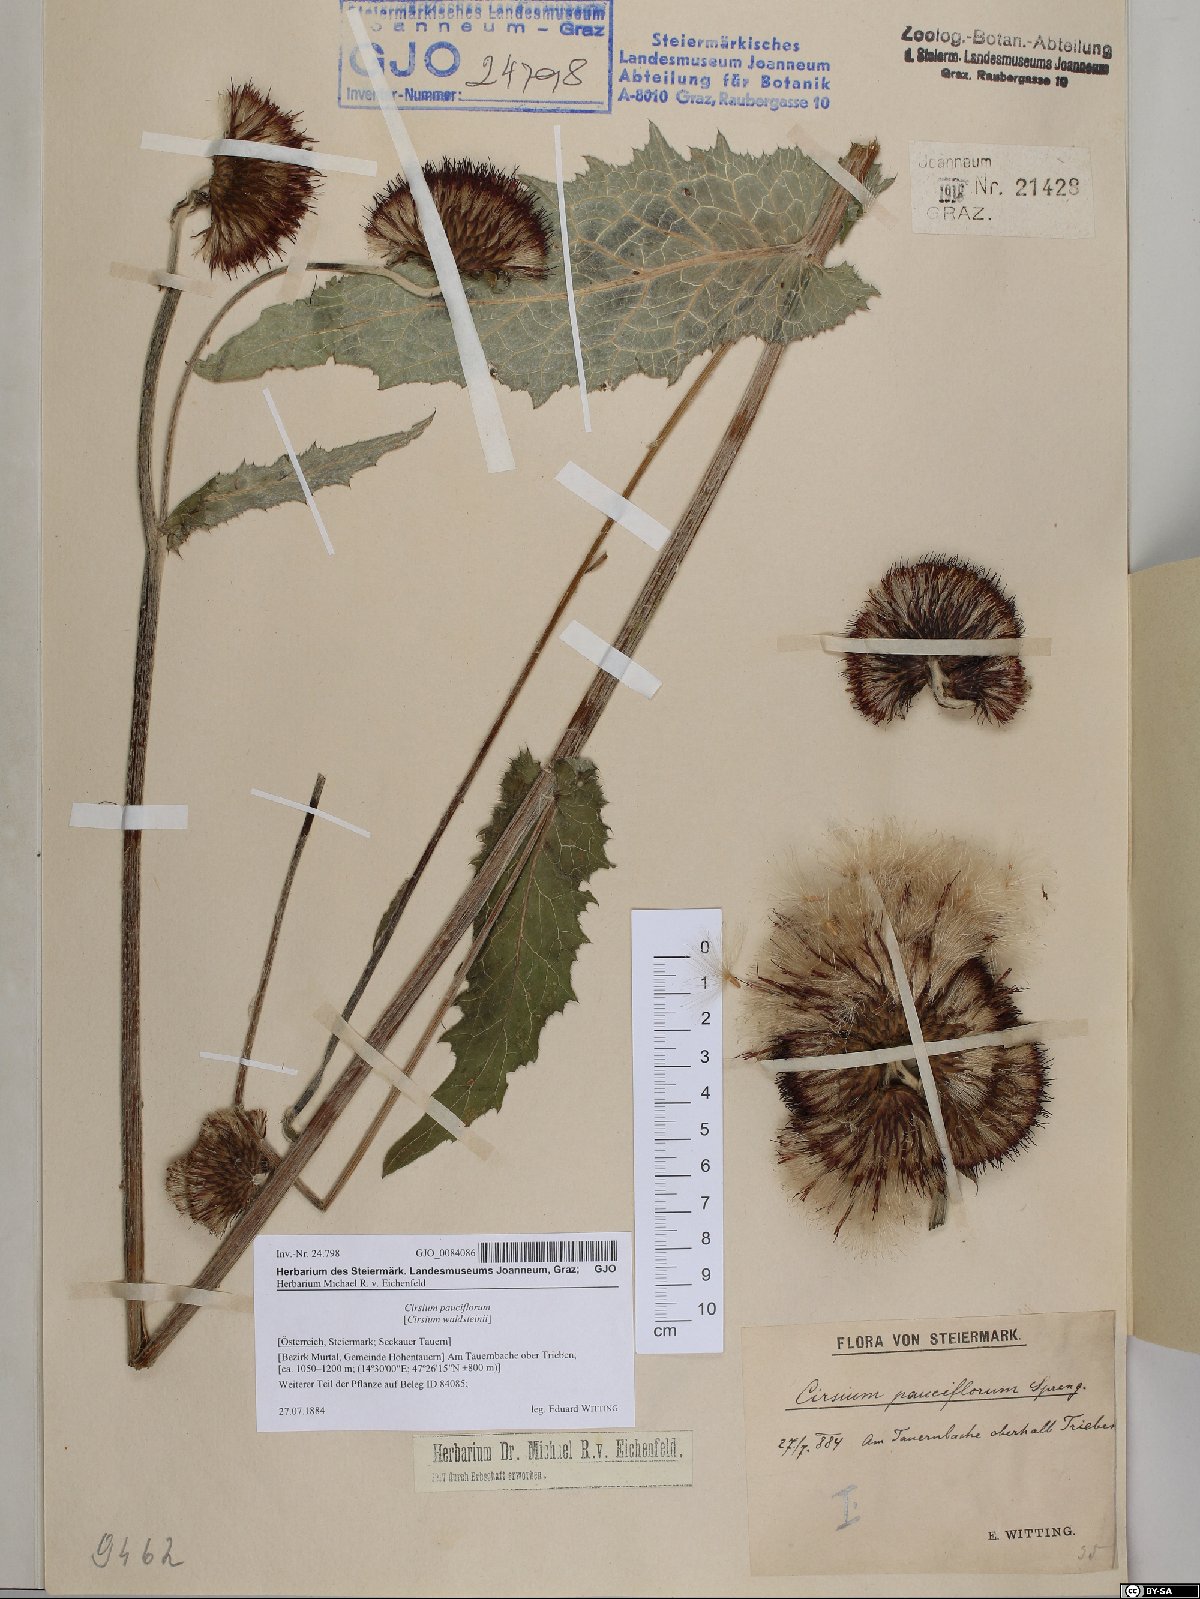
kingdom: Plantae
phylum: Tracheophyta
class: Magnoliopsida
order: Asterales
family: Asteraceae
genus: Cirsium
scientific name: Cirsium greimleri
